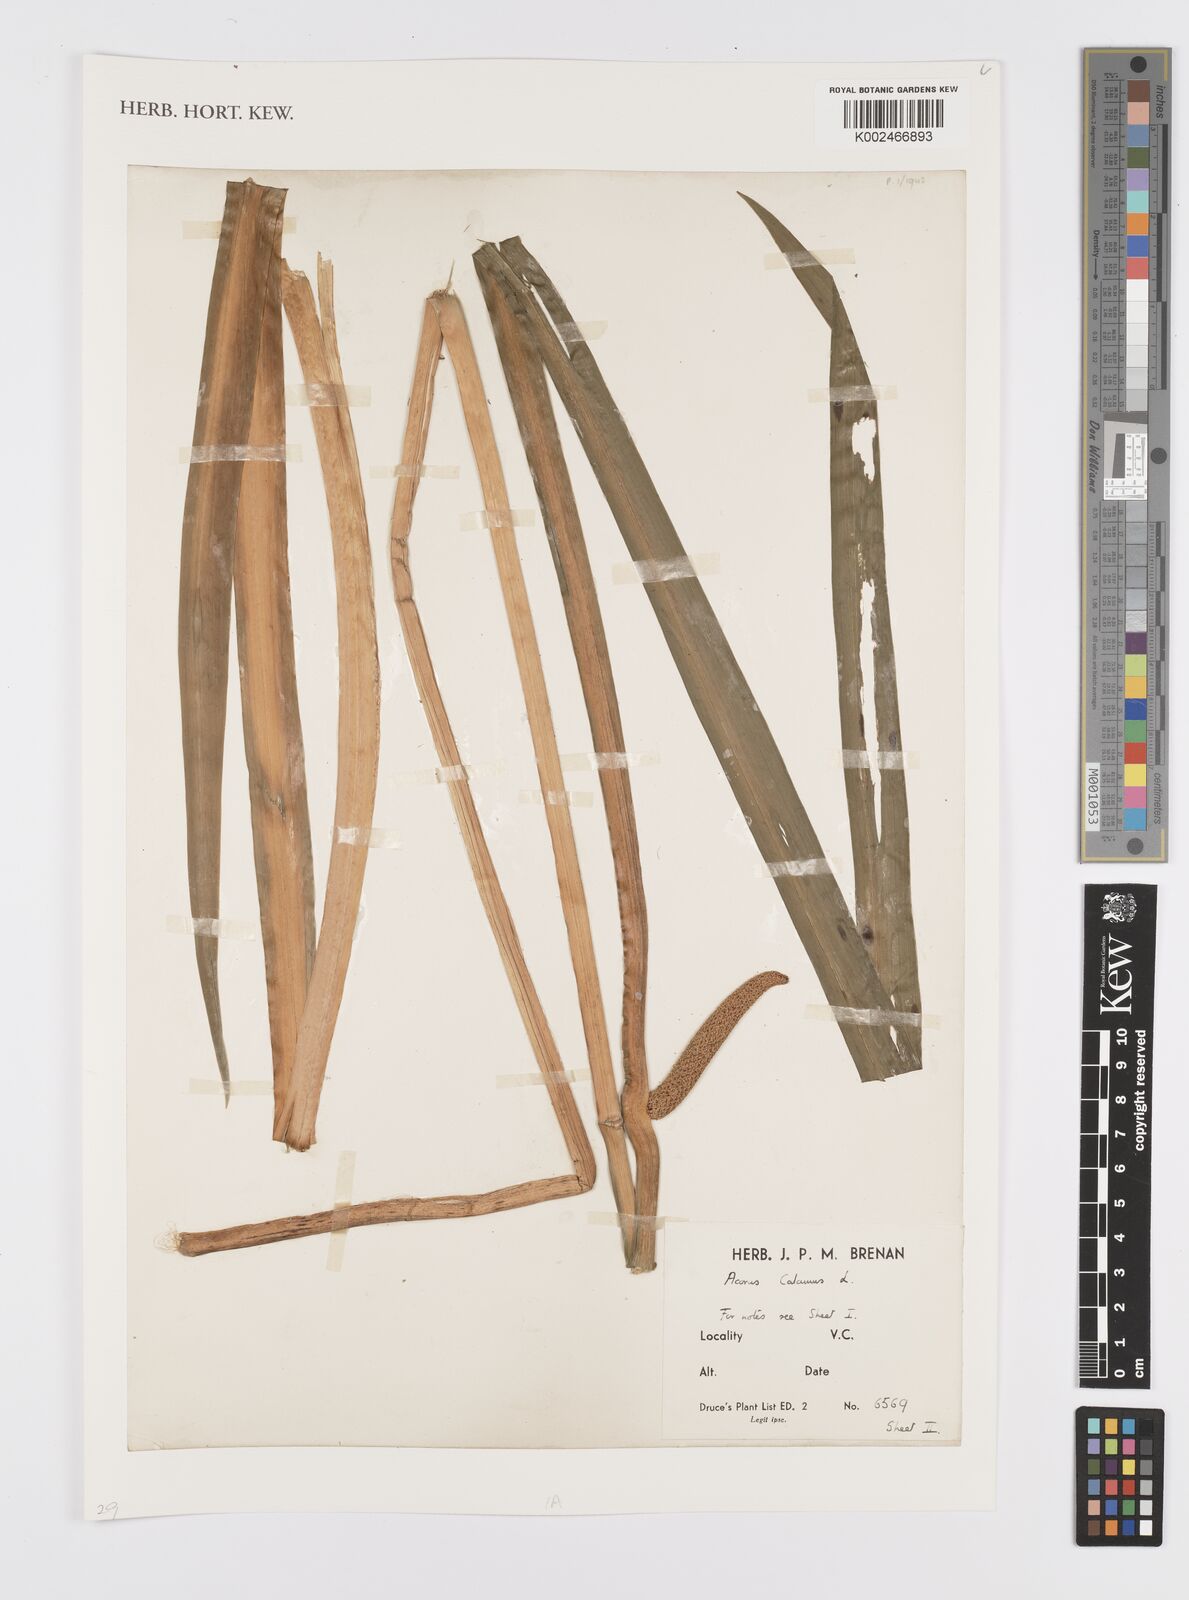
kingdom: Plantae
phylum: Tracheophyta
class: Liliopsida
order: Acorales
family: Acoraceae
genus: Acorus
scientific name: Acorus calamus
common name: Sweet-flag
